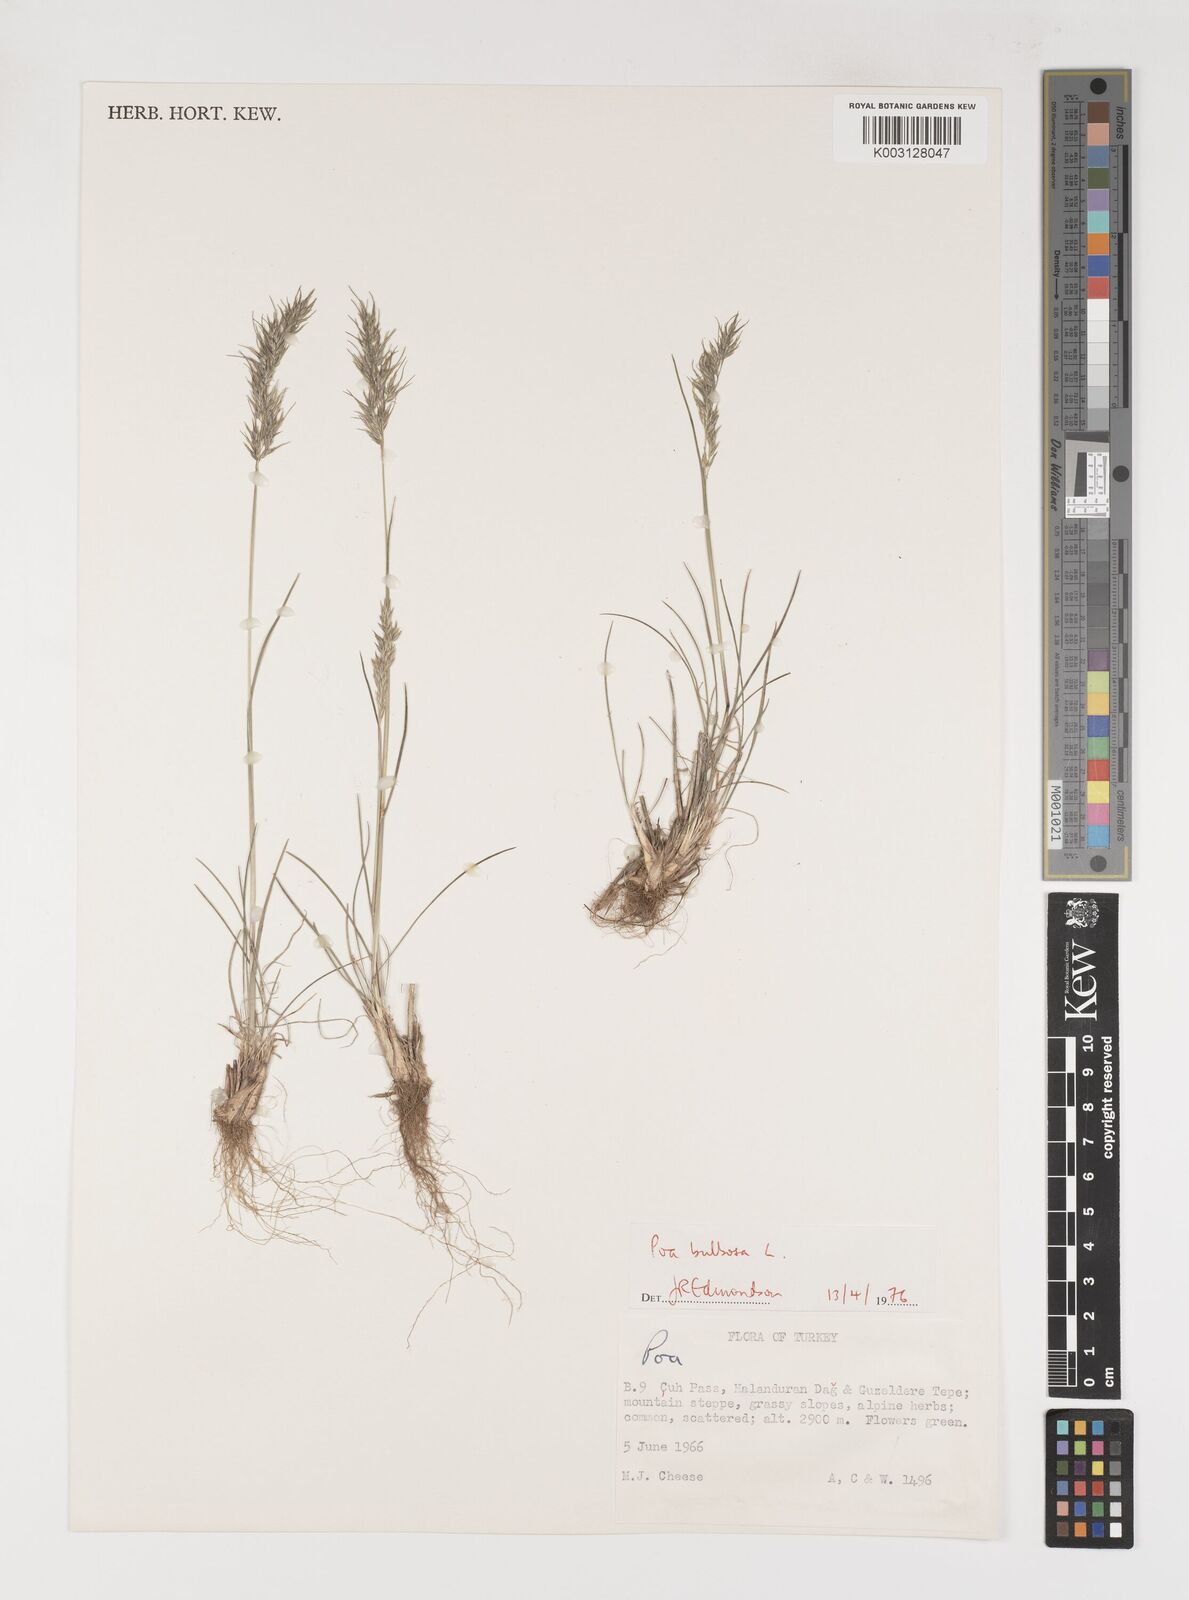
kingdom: Plantae
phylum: Tracheophyta
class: Liliopsida
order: Poales
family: Poaceae
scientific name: Poaceae
